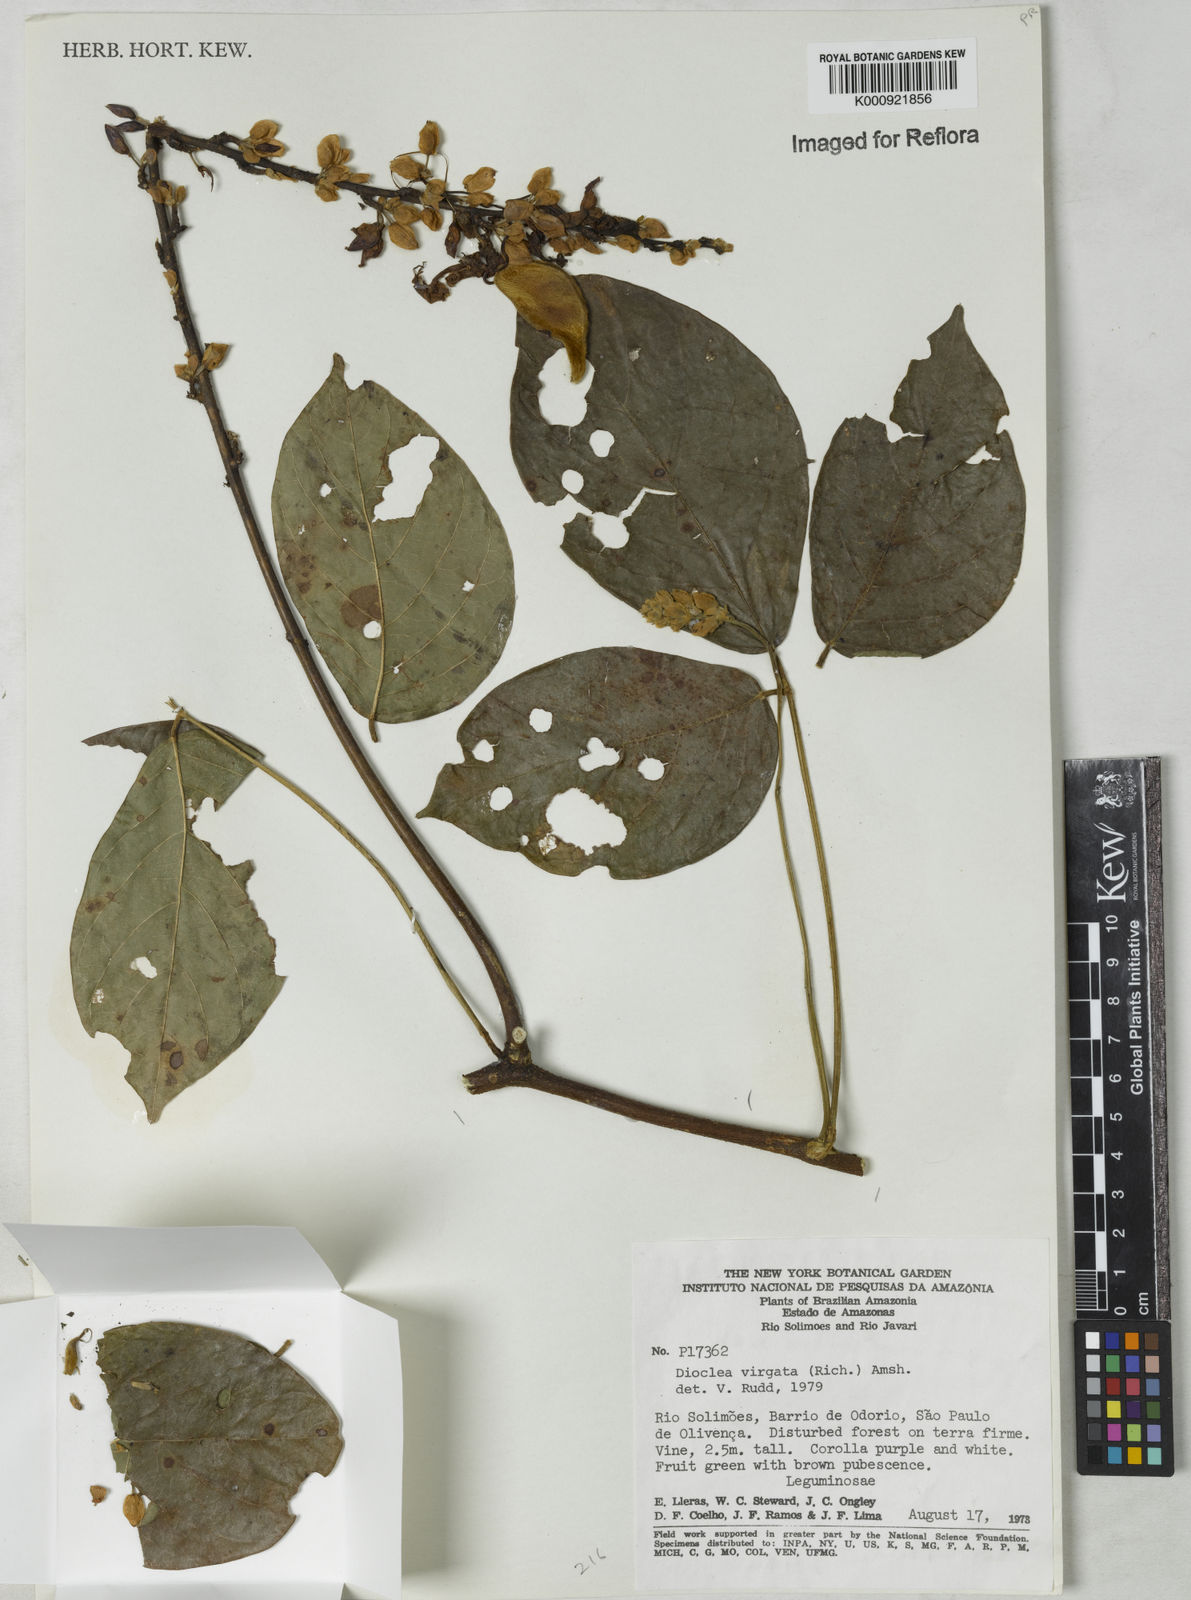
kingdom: Plantae
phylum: Tracheophyta
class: Magnoliopsida
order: Fabales
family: Fabaceae
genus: Dioclea
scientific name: Dioclea virgata
